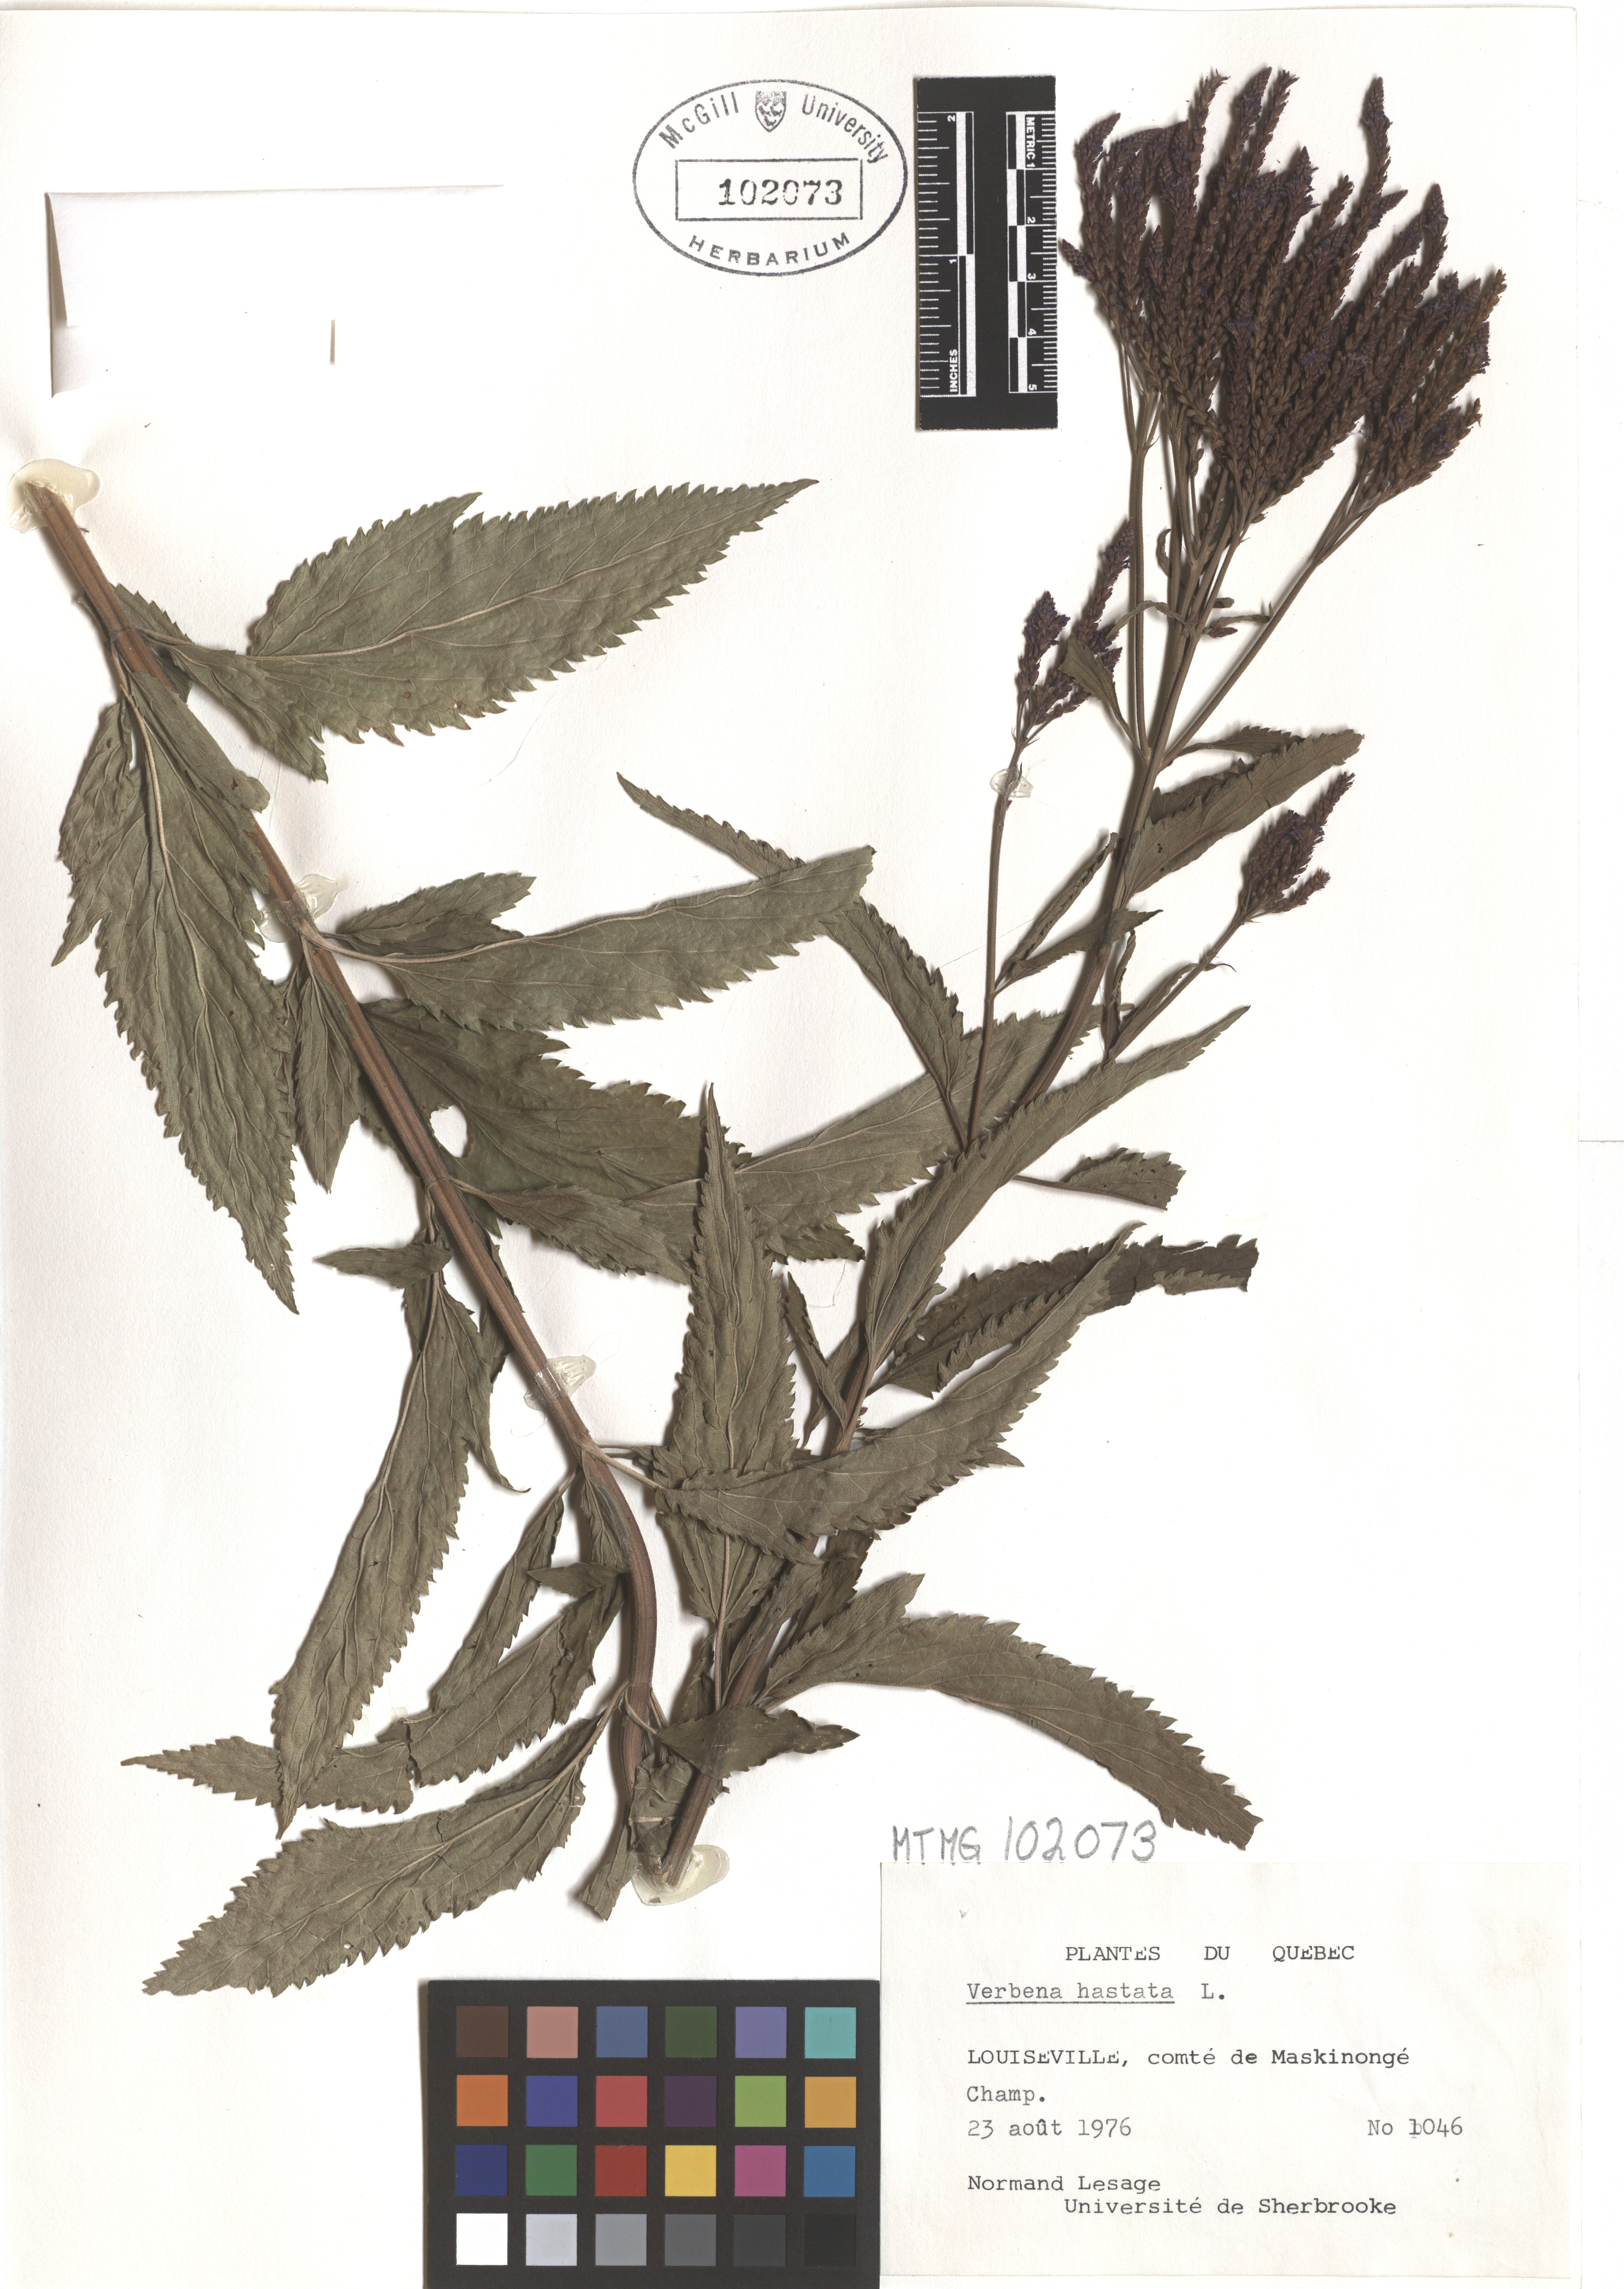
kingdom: Plantae
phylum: Tracheophyta
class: Magnoliopsida
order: Lamiales
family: Verbenaceae
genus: Verbena
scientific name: Verbena hastata
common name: American blue vervain
